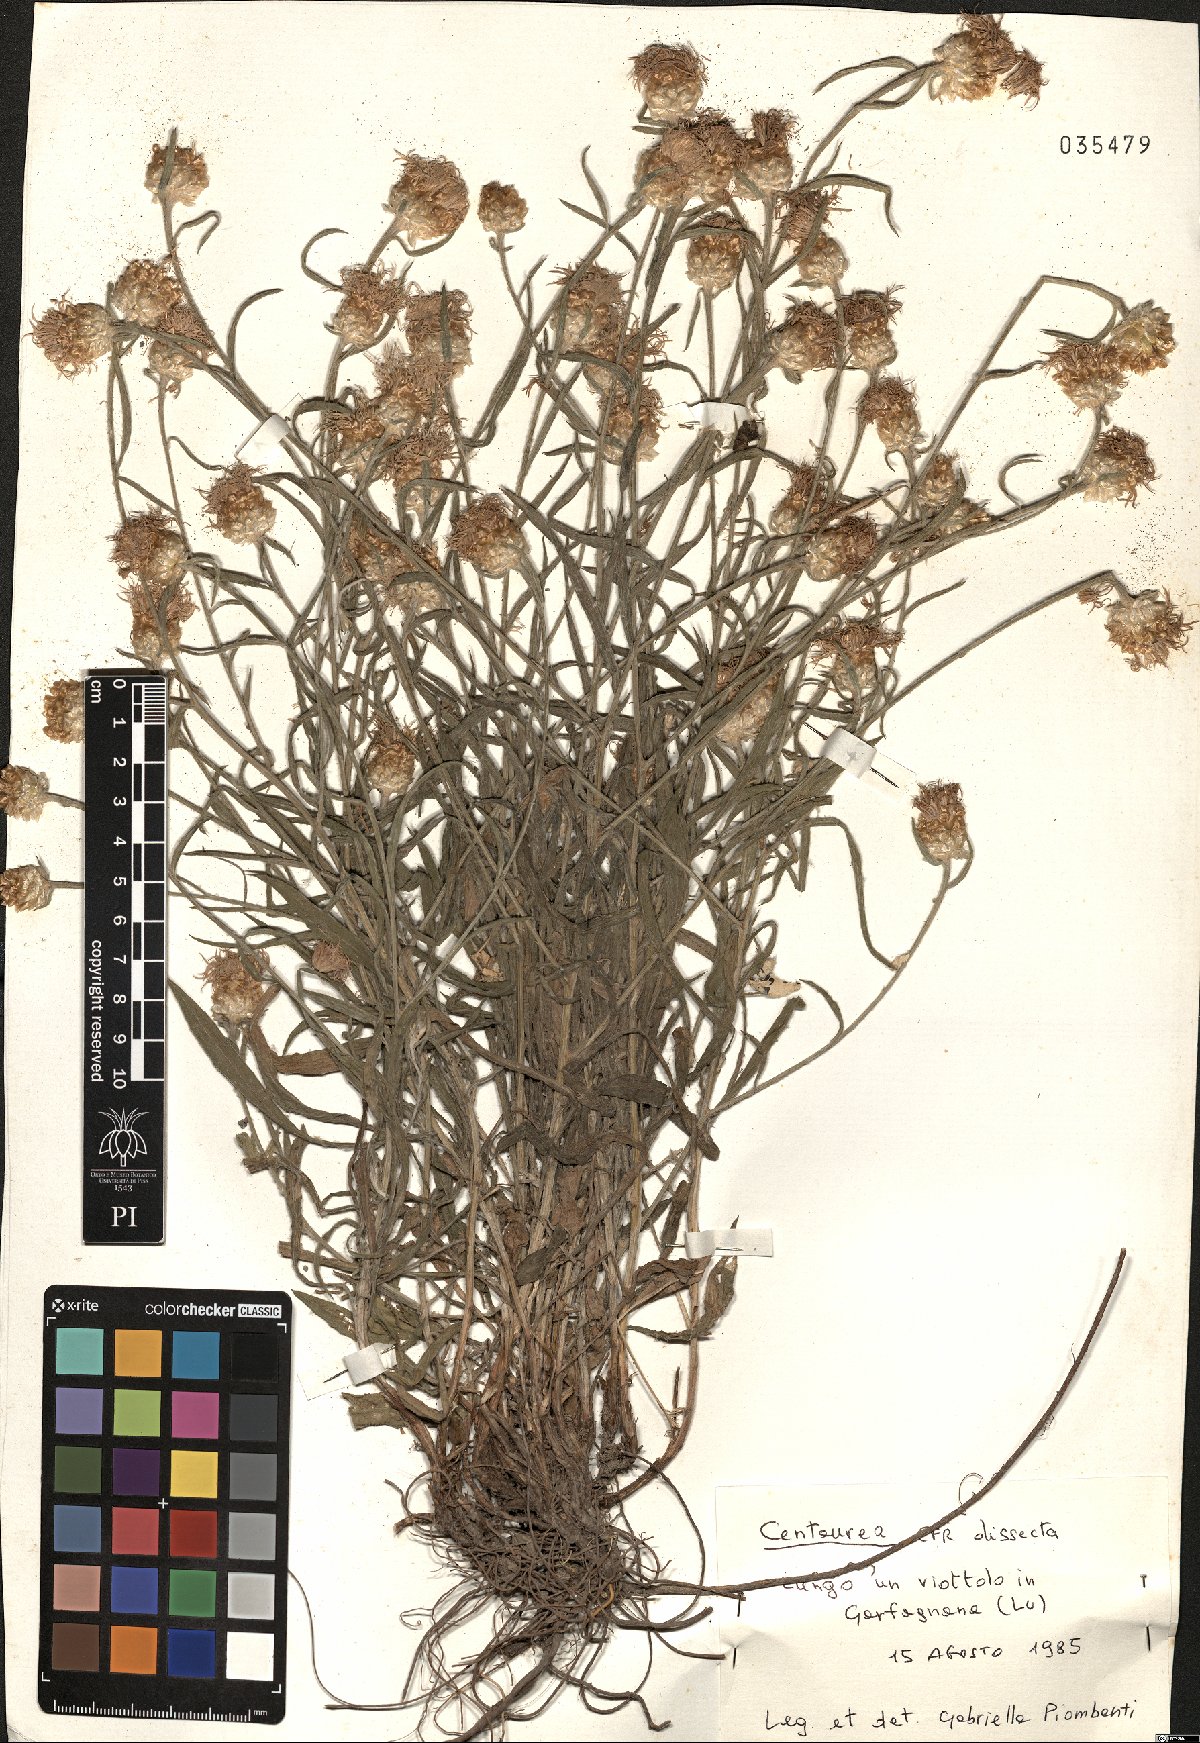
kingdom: Plantae
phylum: Tracheophyta
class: Magnoliopsida
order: Asterales
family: Asteraceae
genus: Centaurea
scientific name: Centaurea tenorei
